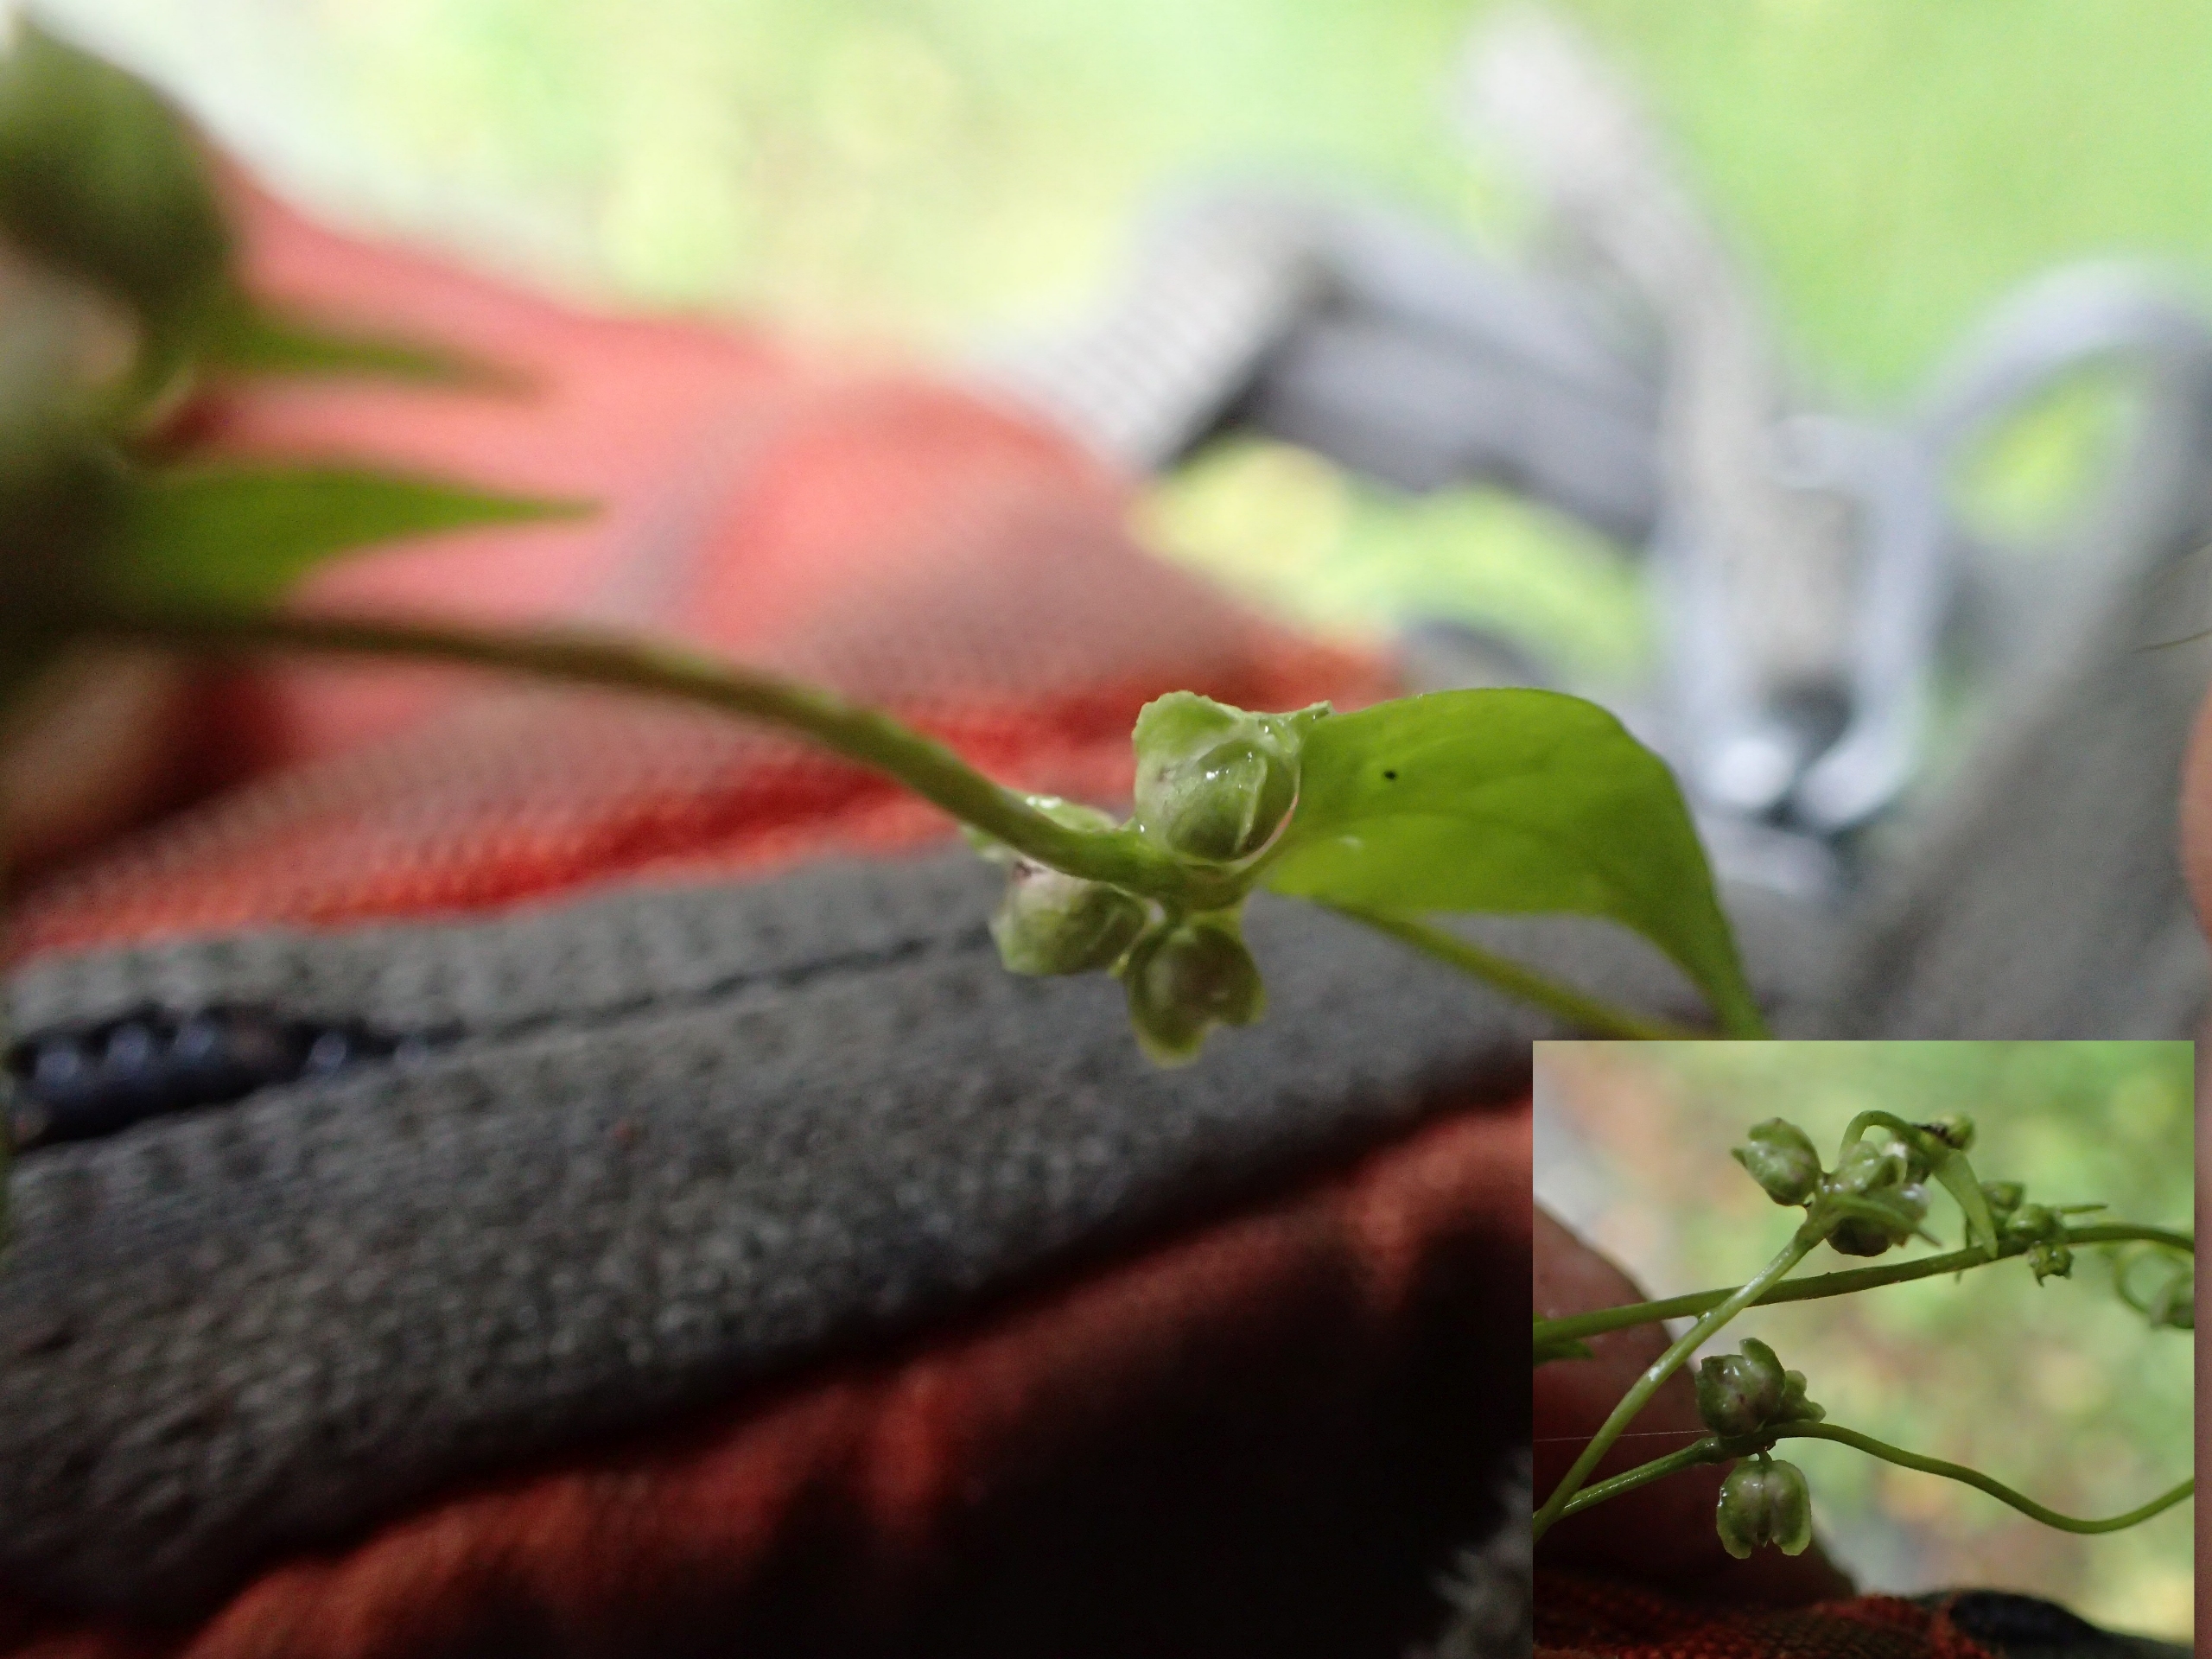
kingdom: Plantae
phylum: Tracheophyta
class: Magnoliopsida
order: Caryophyllales
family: Polygonaceae
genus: Fallopia
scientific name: Fallopia dumetorum
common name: Vinge-pileurt
